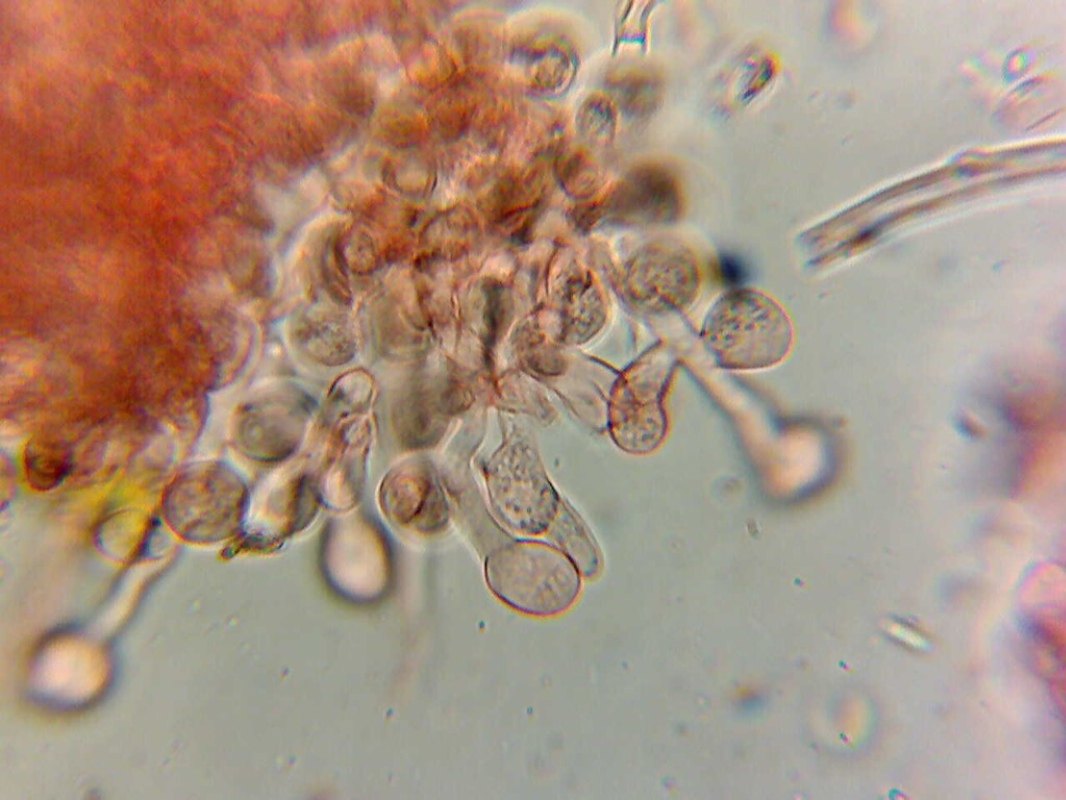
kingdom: Fungi
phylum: Basidiomycota
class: Agaricomycetes
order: Cantharellales
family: Tulasnellaceae
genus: Tulasnella
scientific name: Tulasnella violea
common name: violet ballonhinde
